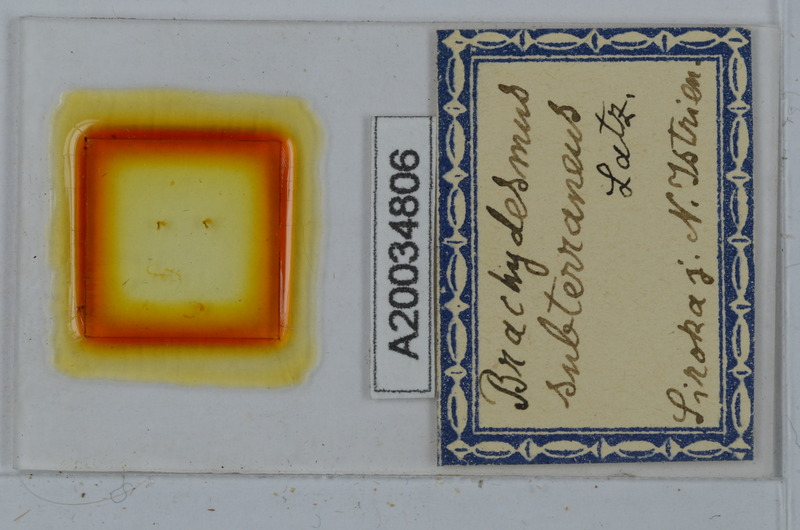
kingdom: Animalia
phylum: Arthropoda
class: Diplopoda
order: Polydesmida
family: Polydesmidae
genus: Brachydesmus
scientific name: Brachydesmus subterraneus
